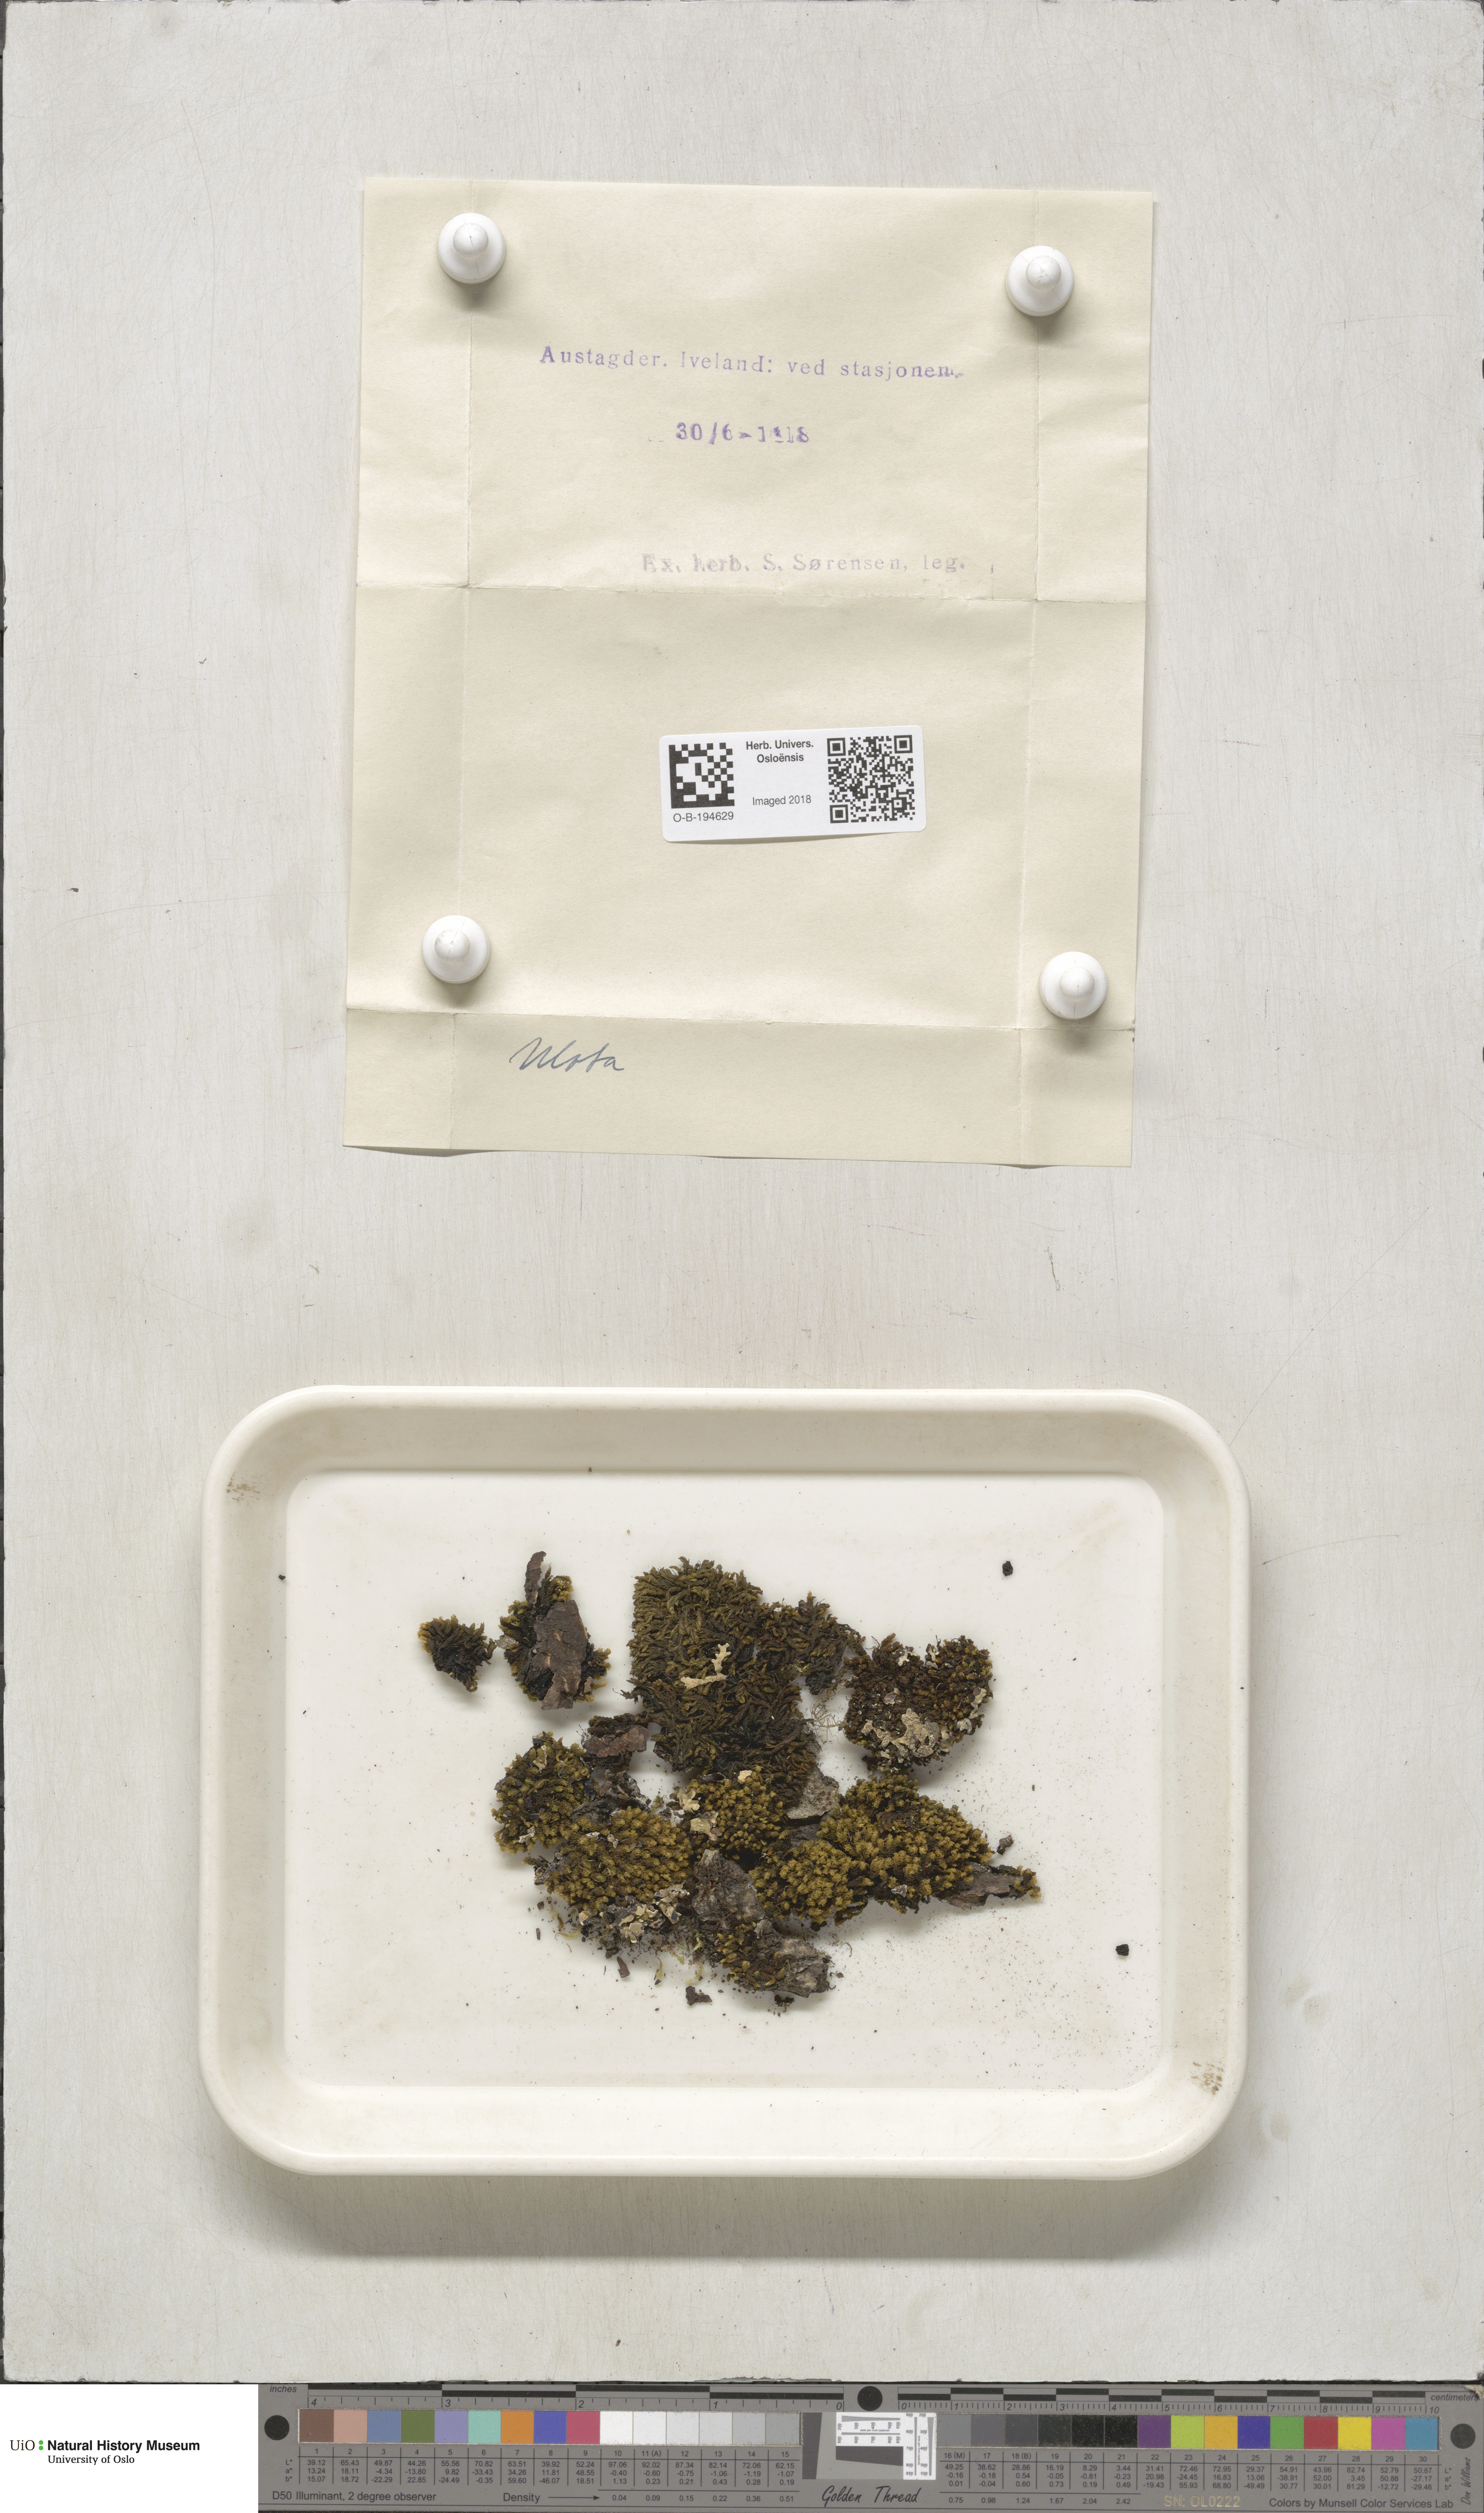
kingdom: Plantae
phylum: Bryophyta
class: Bryopsida
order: Orthotrichales
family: Orthotrichaceae
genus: Ulota
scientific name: Ulota
